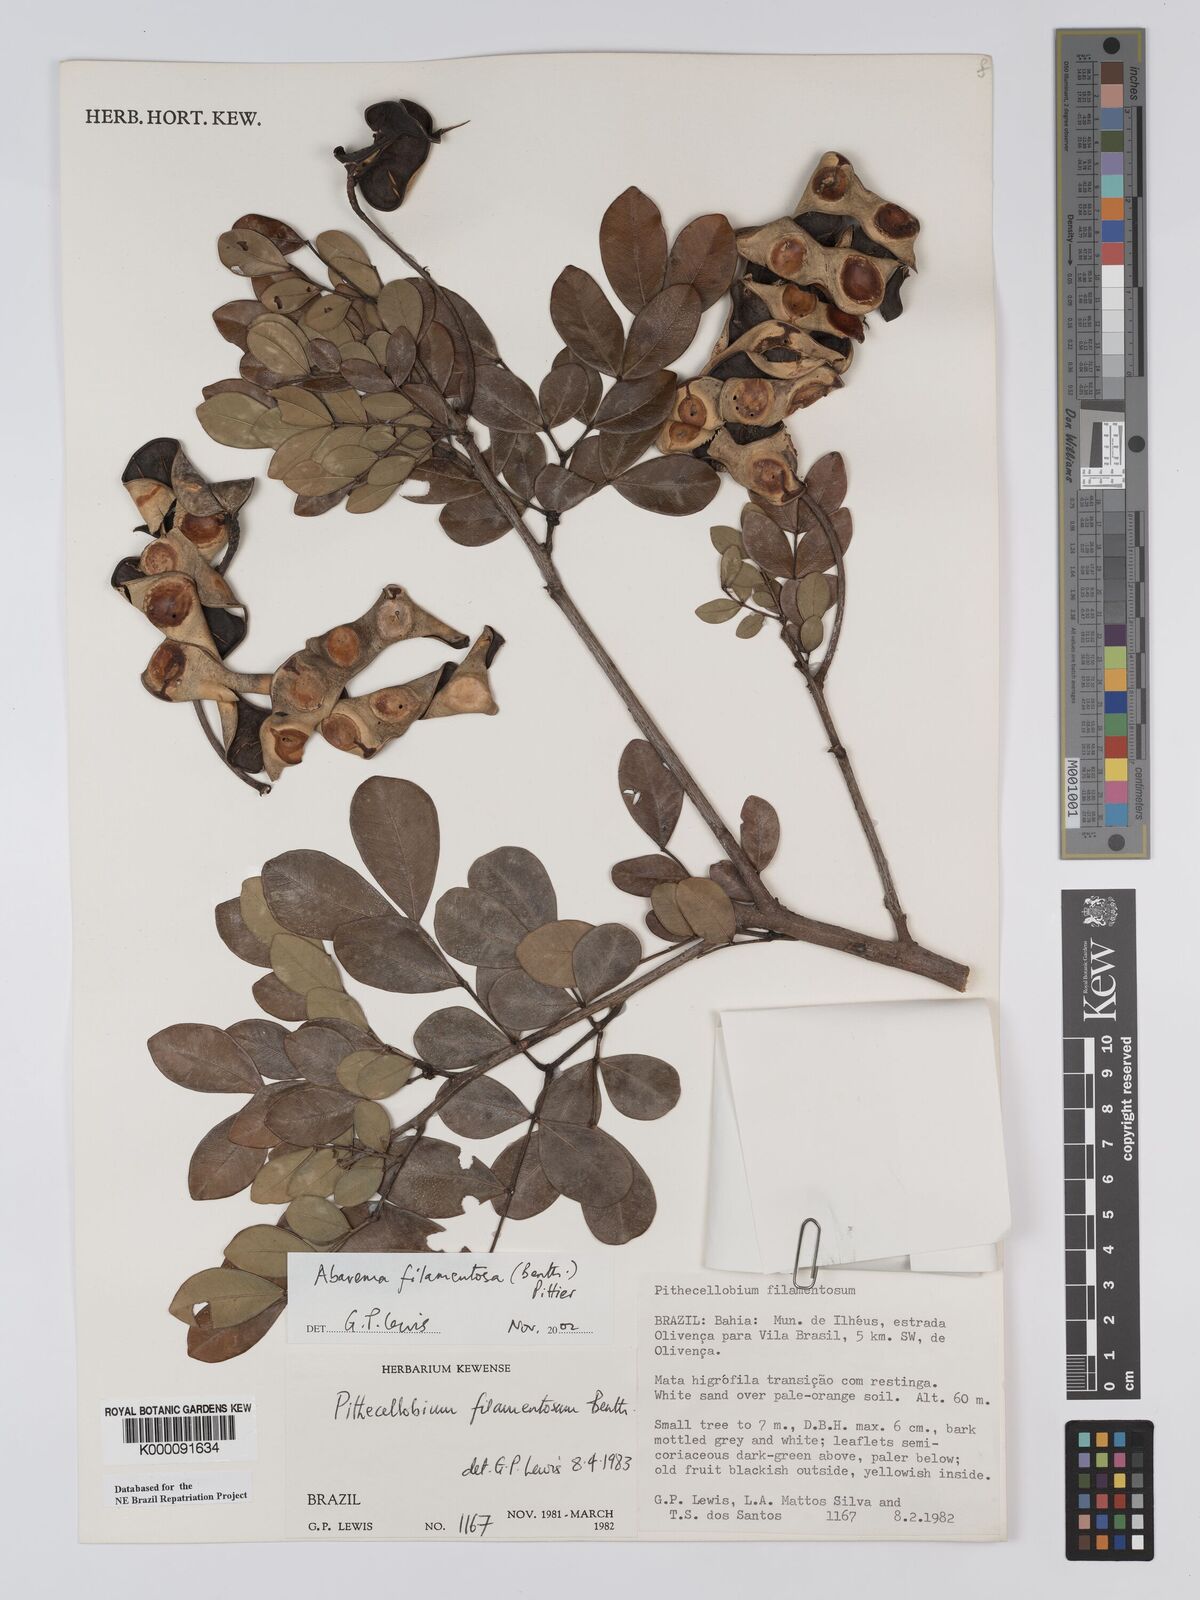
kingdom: Plantae
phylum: Tracheophyta
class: Magnoliopsida
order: Fabales
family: Fabaceae
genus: Jupunba
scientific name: Jupunba filamentosa
